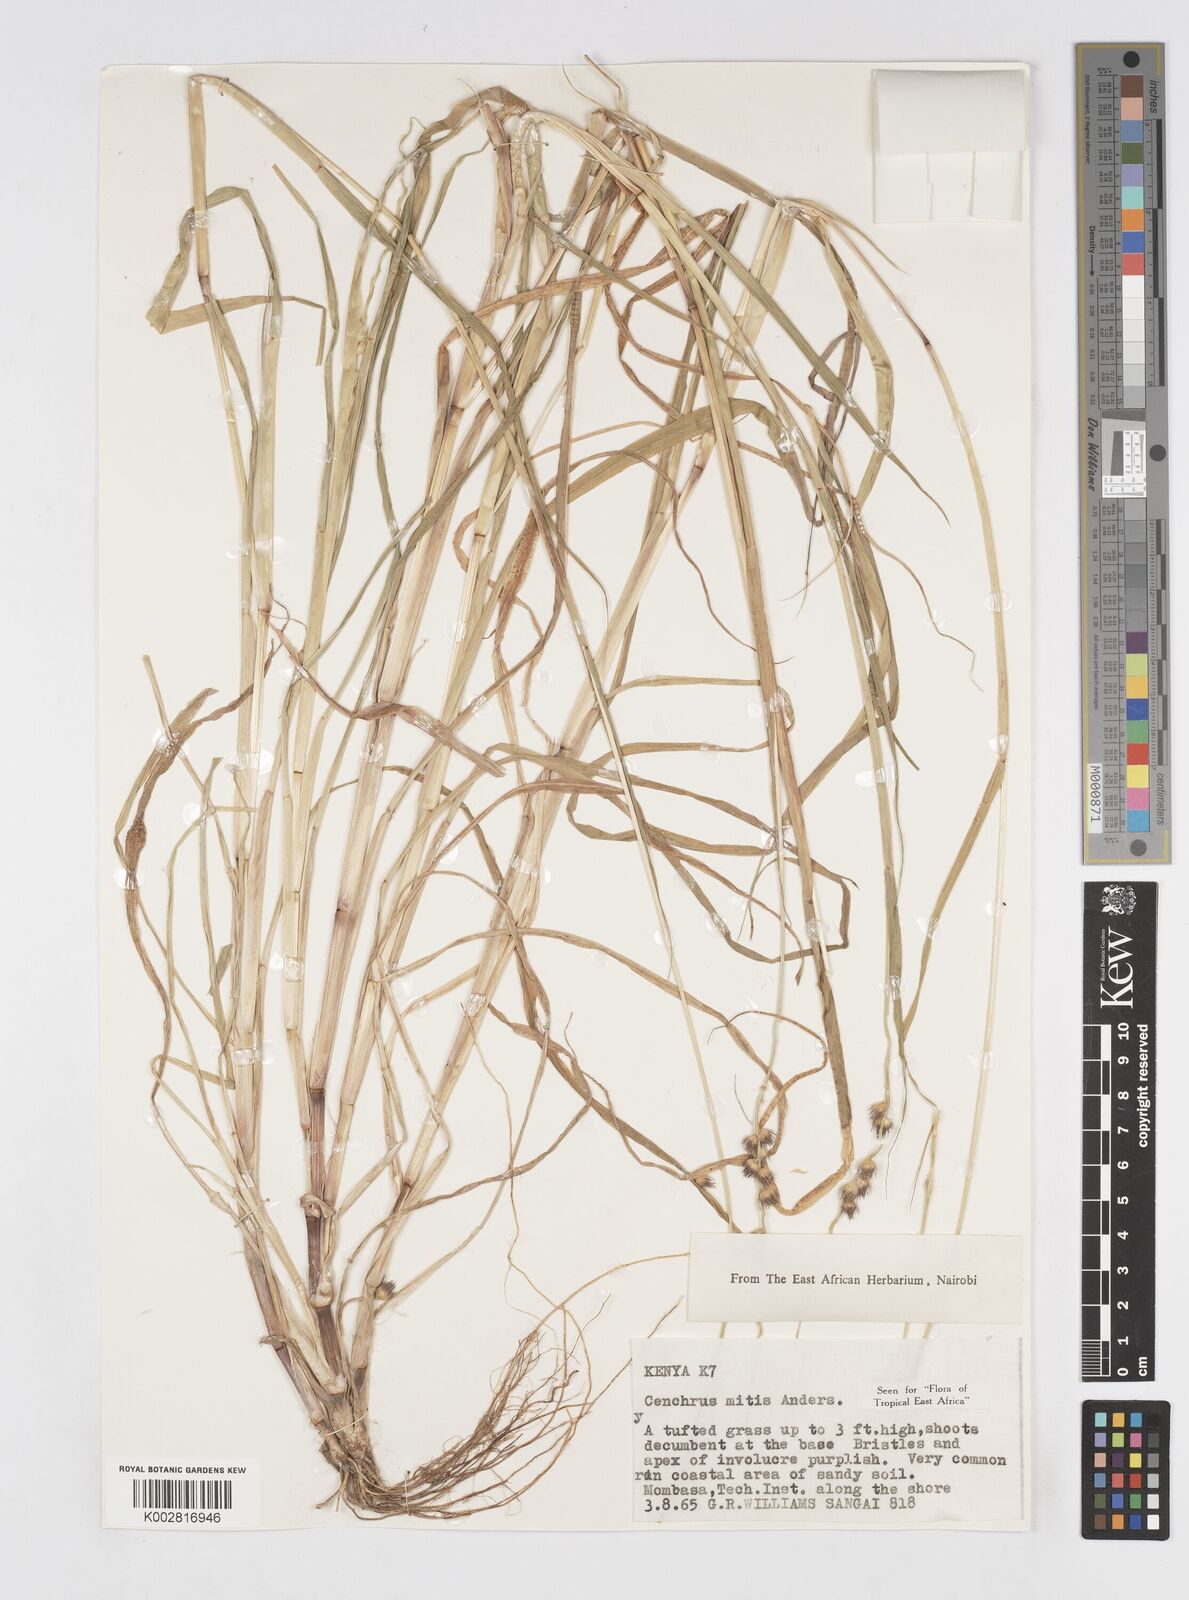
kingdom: Plantae
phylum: Tracheophyta
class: Liliopsida
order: Poales
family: Poaceae
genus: Cenchrus
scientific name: Cenchrus mitis
